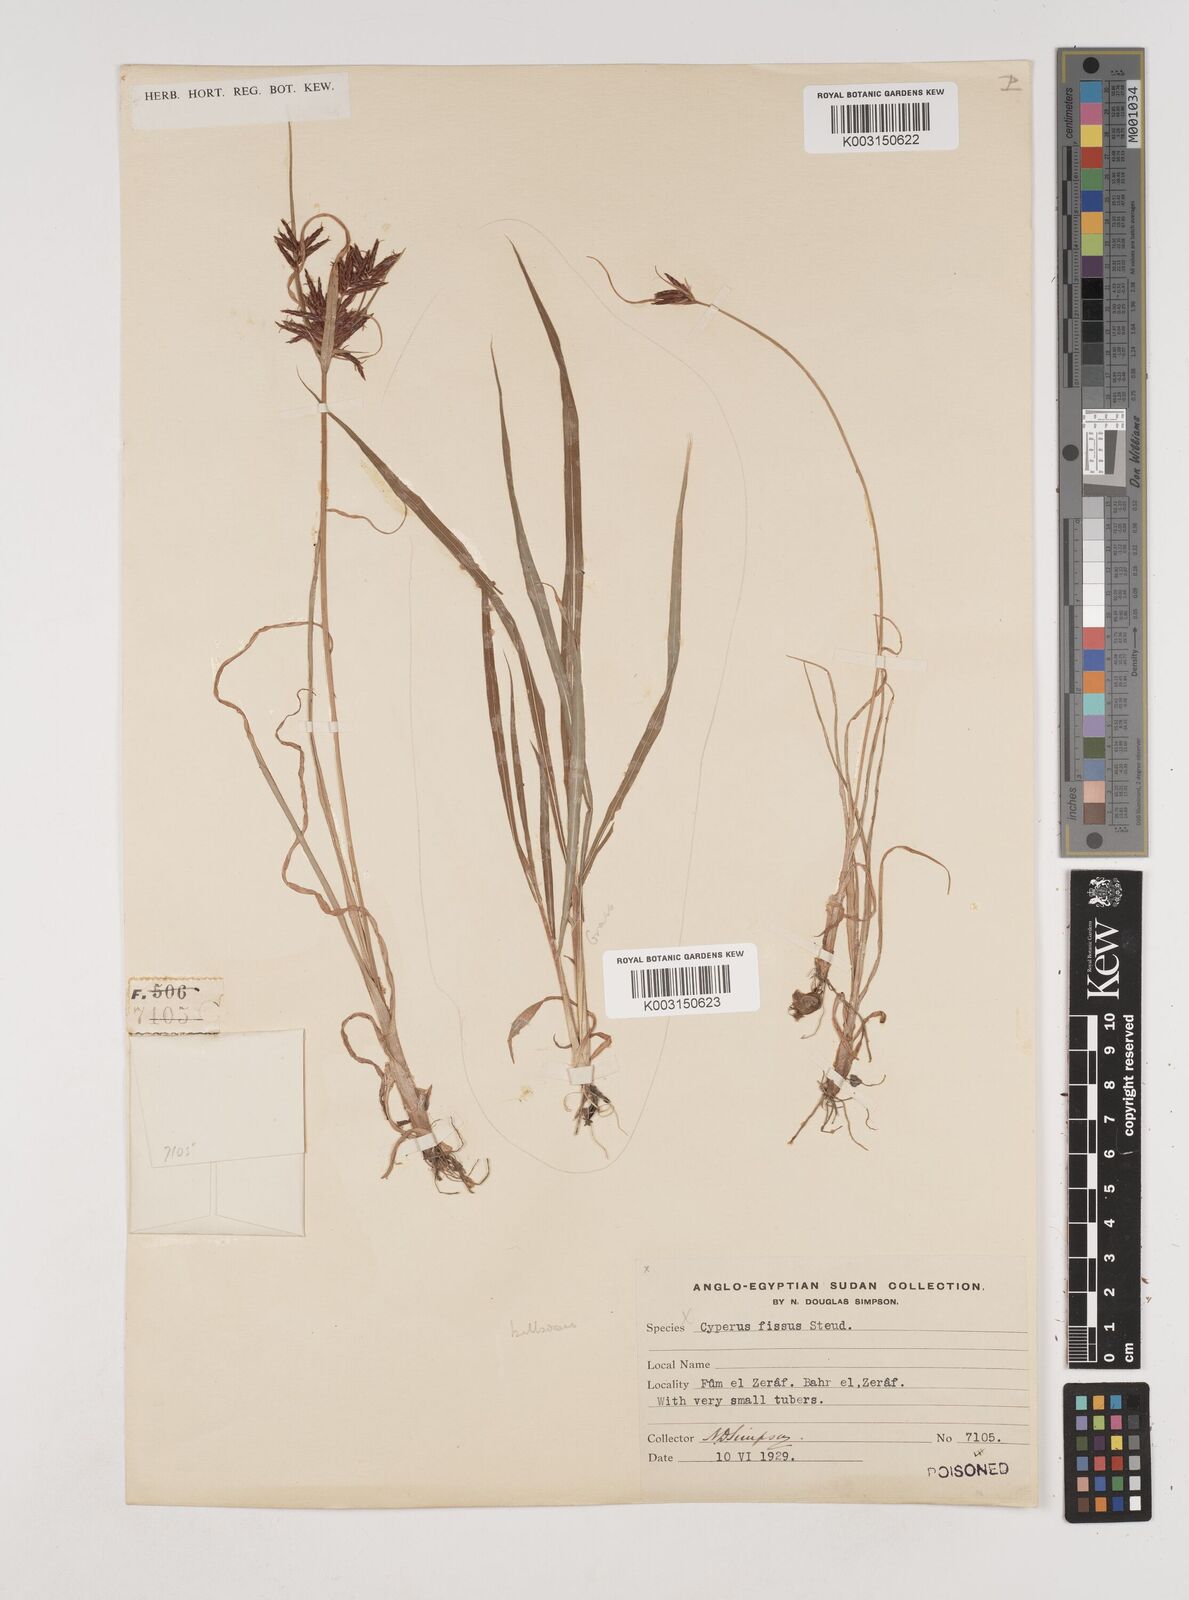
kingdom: Plantae
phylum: Tracheophyta
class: Liliopsida
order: Poales
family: Cyperaceae
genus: Cyperus
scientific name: Cyperus bulbosus
